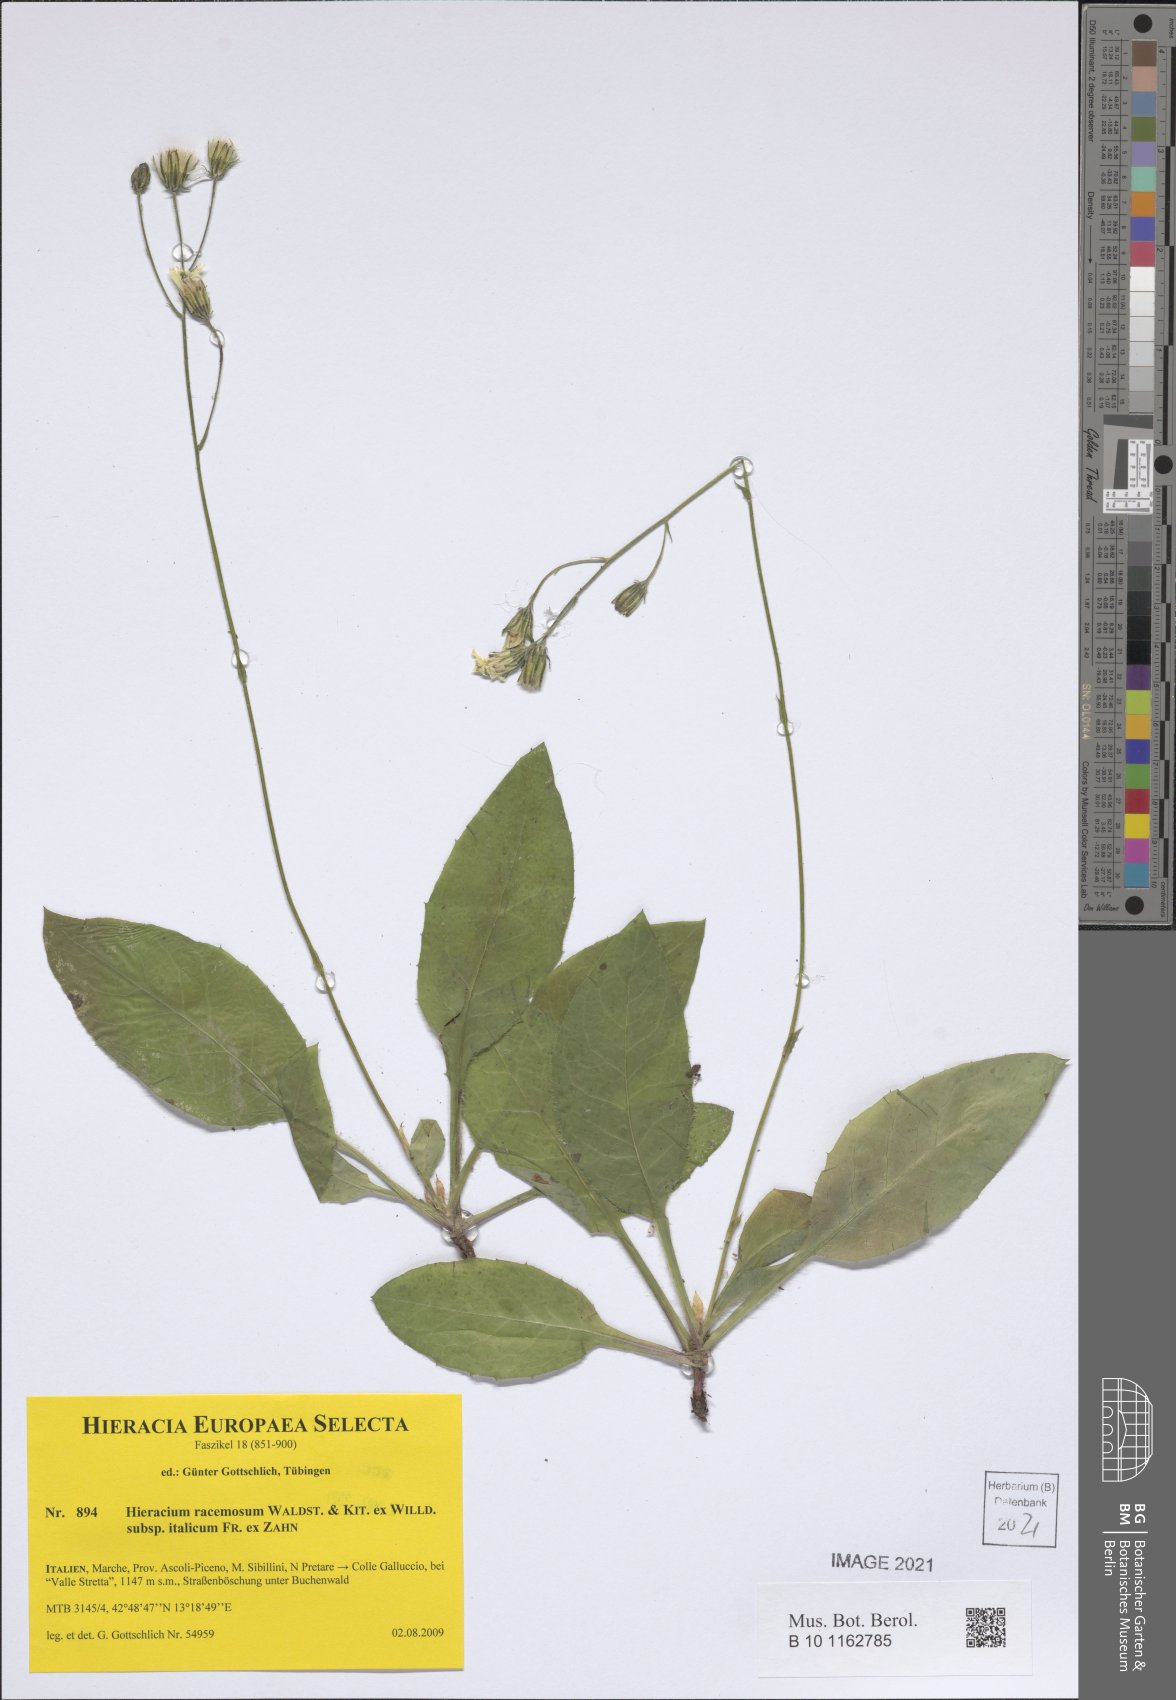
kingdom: Plantae
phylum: Tracheophyta
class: Magnoliopsida
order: Asterales
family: Asteraceae
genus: Hieracium
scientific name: Hieracium racemosum
